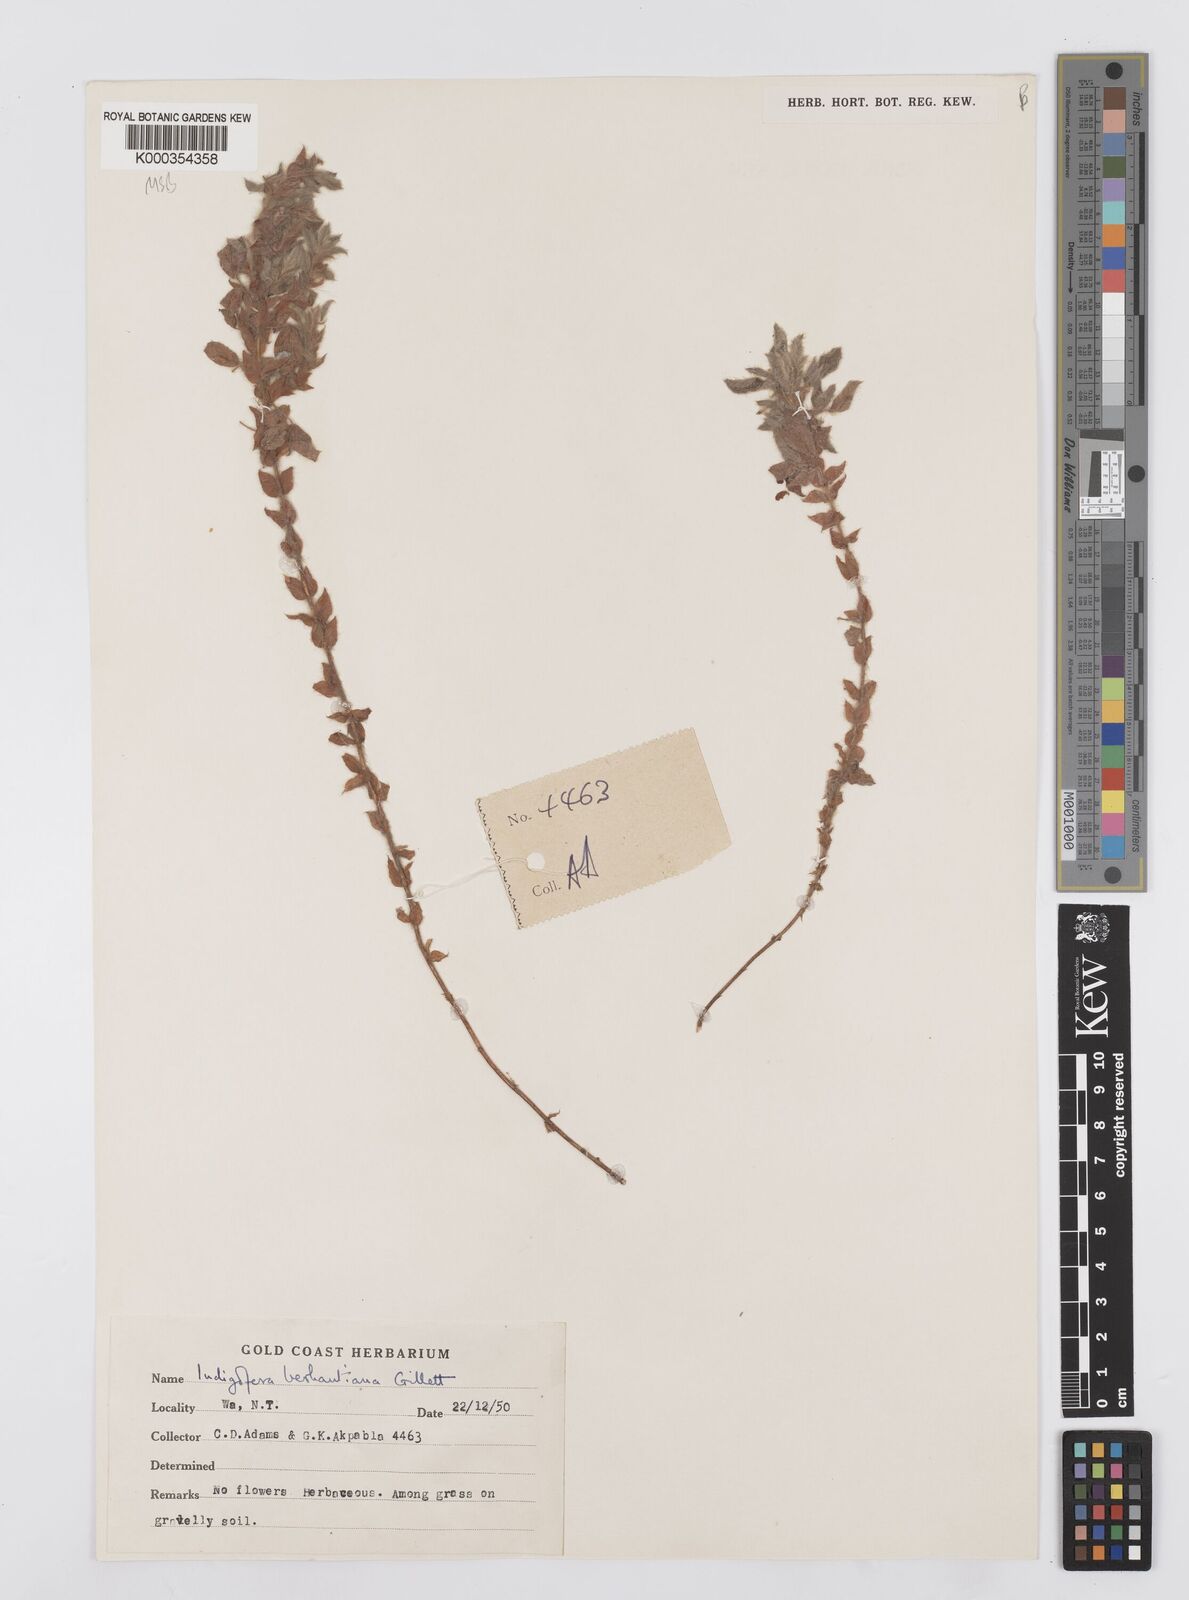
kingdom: Plantae
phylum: Tracheophyta
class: Magnoliopsida
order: Fabales
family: Fabaceae
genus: Indigofera
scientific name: Indigofera berhautiana
